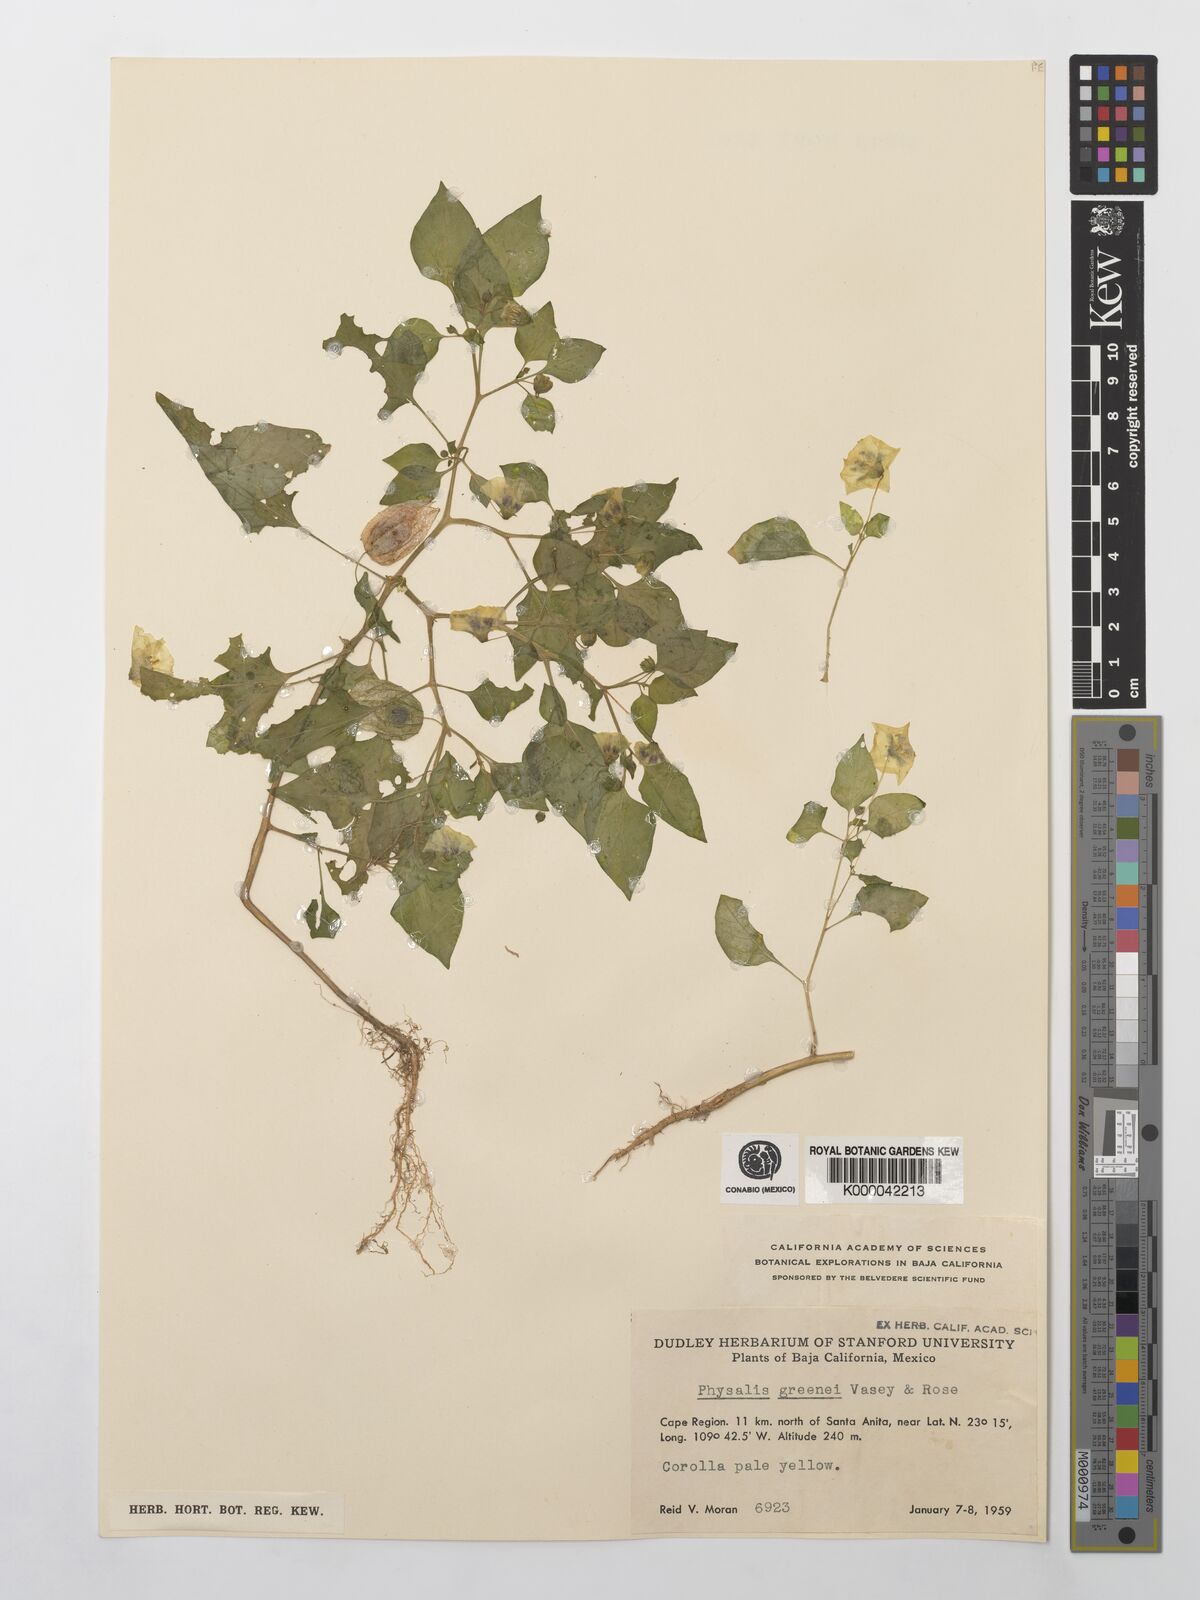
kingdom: Plantae
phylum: Tracheophyta
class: Magnoliopsida
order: Solanales
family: Solanaceae
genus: Physalis
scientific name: Physalis crassifolia
